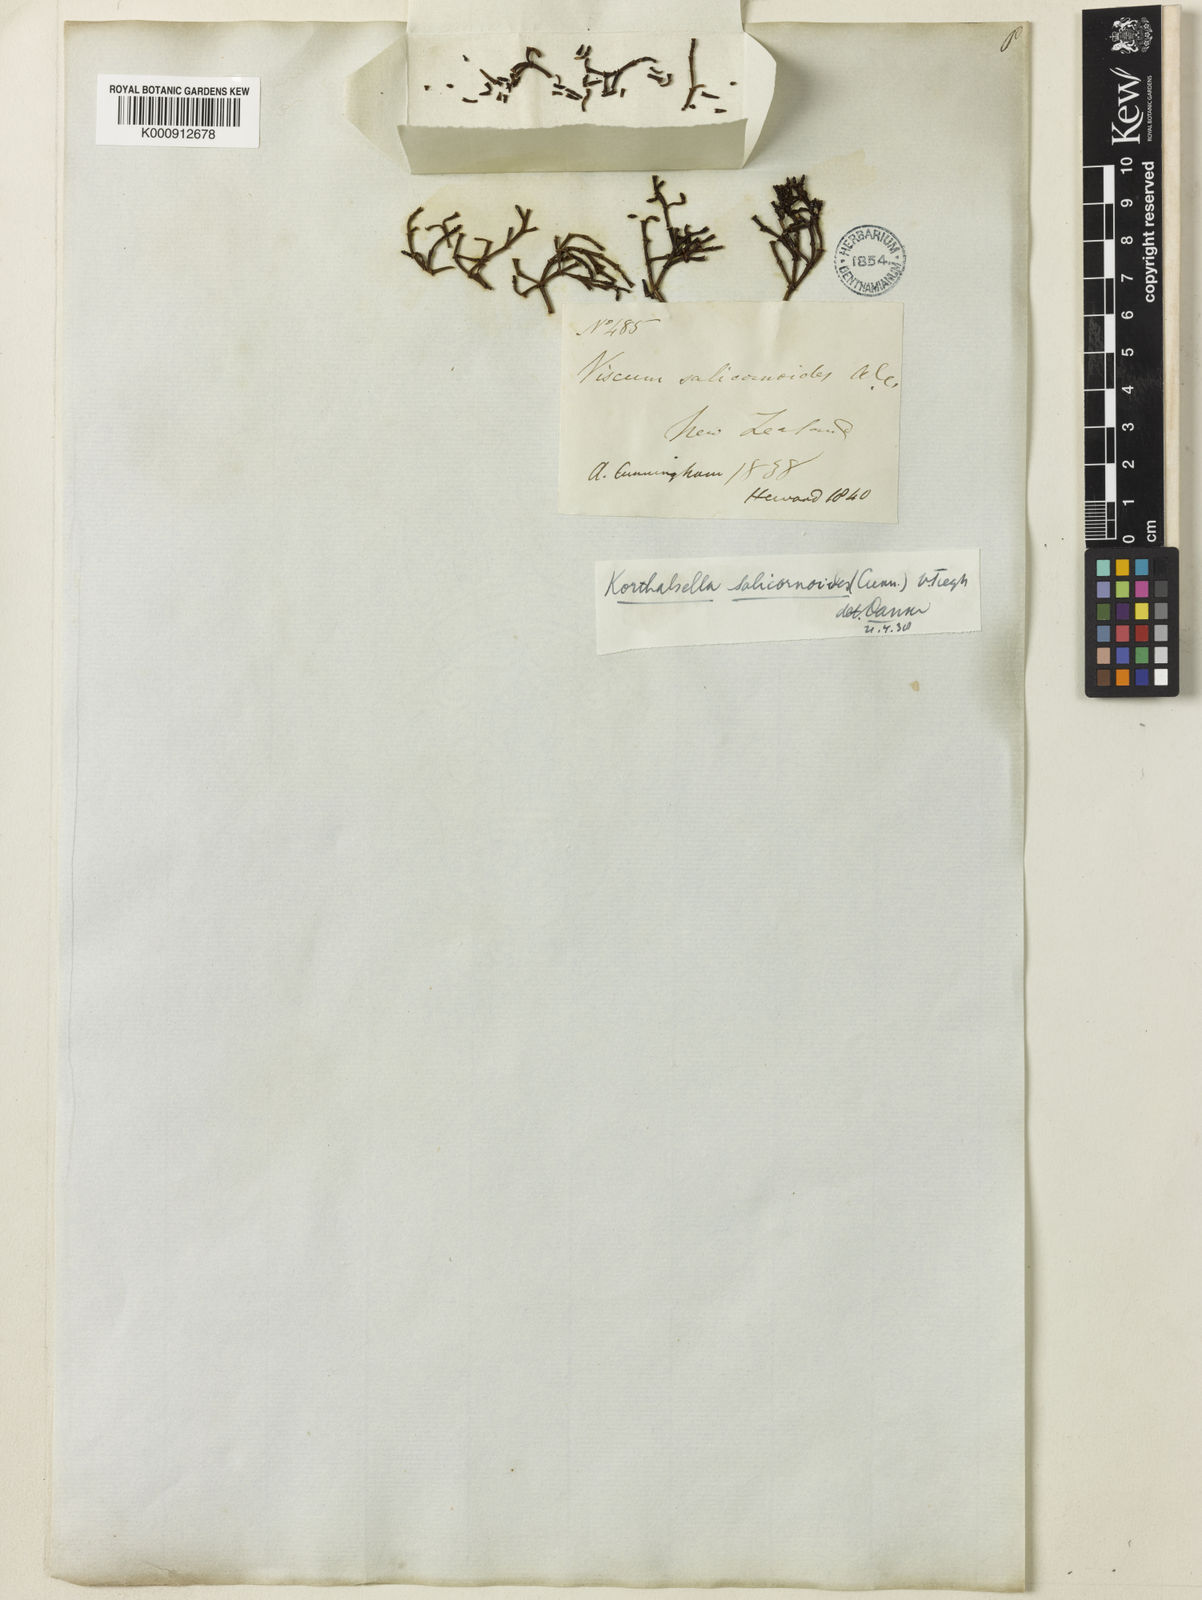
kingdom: Plantae
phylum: Tracheophyta
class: Magnoliopsida
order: Santalales
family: Viscaceae
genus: Korthalsella
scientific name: Korthalsella salicornioides
